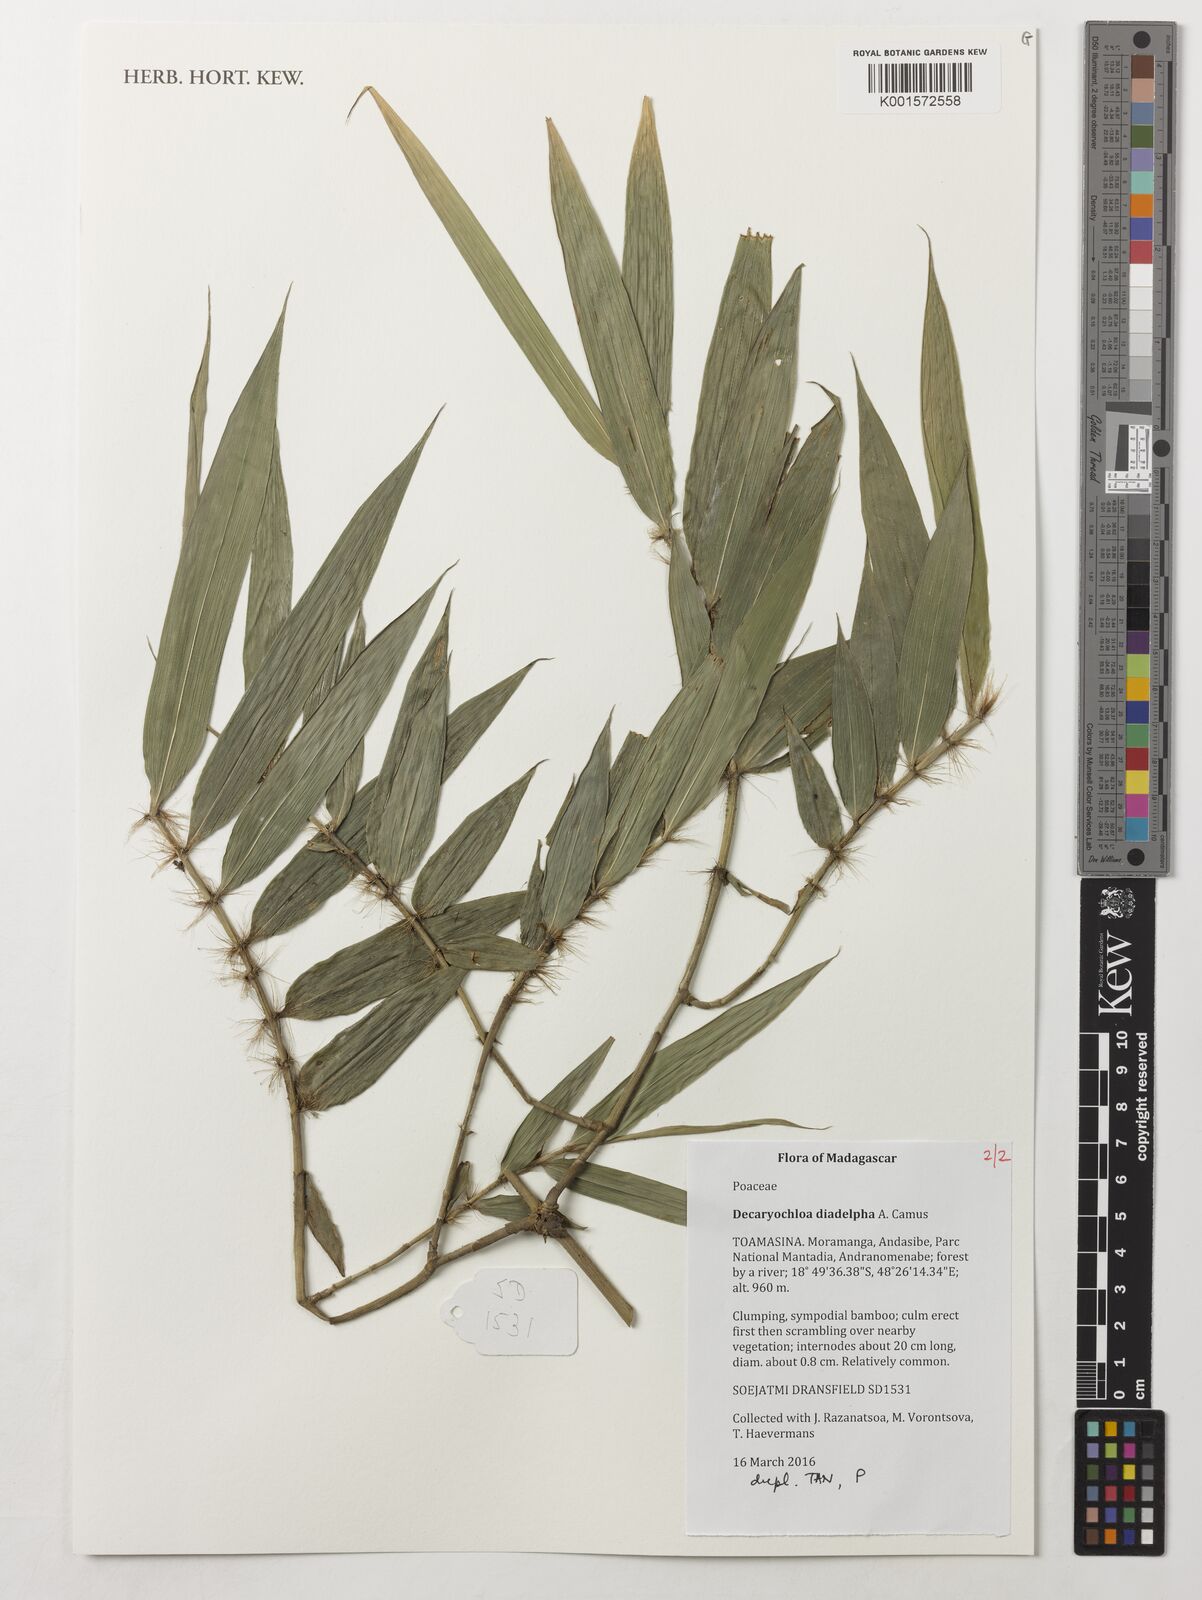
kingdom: Plantae
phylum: Tracheophyta
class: Liliopsida
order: Poales
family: Poaceae
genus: Decaryochloa
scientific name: Decaryochloa diadelpha
